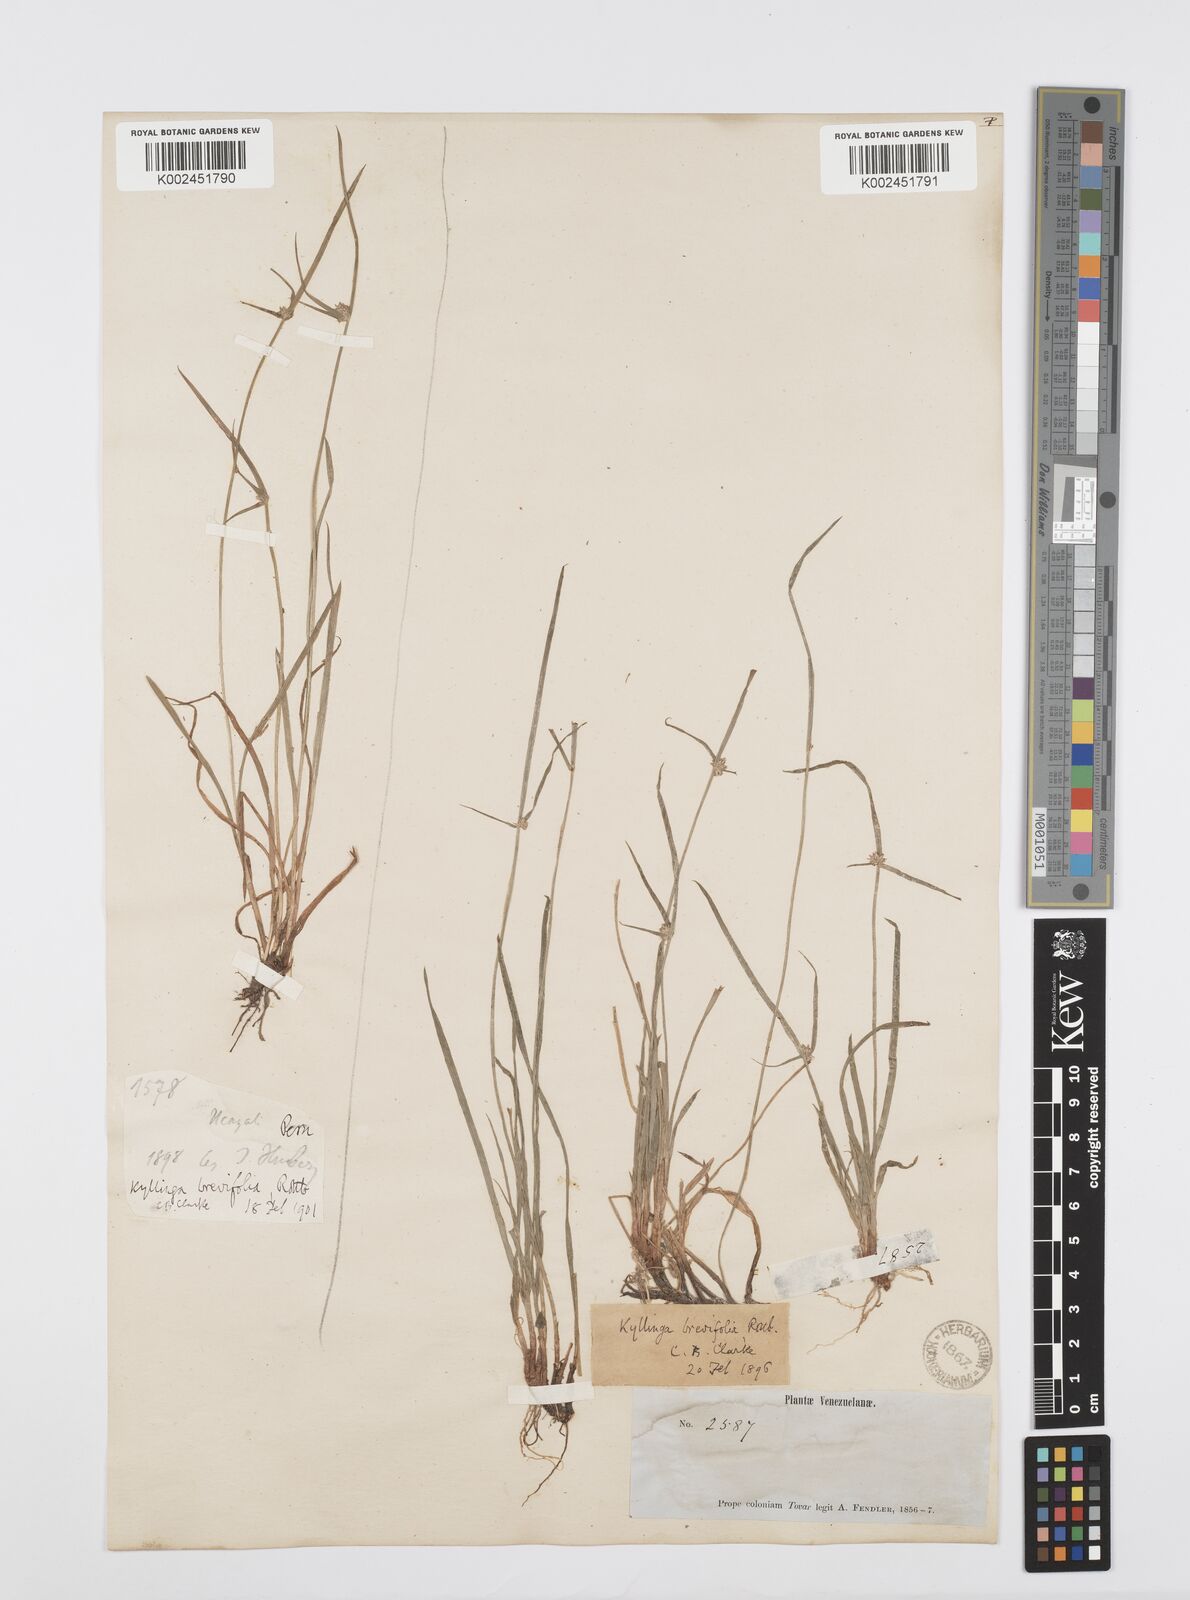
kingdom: Plantae
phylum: Tracheophyta
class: Liliopsida
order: Poales
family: Cyperaceae
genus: Cyperus
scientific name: Cyperus brevifolius
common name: Globe kyllinga
